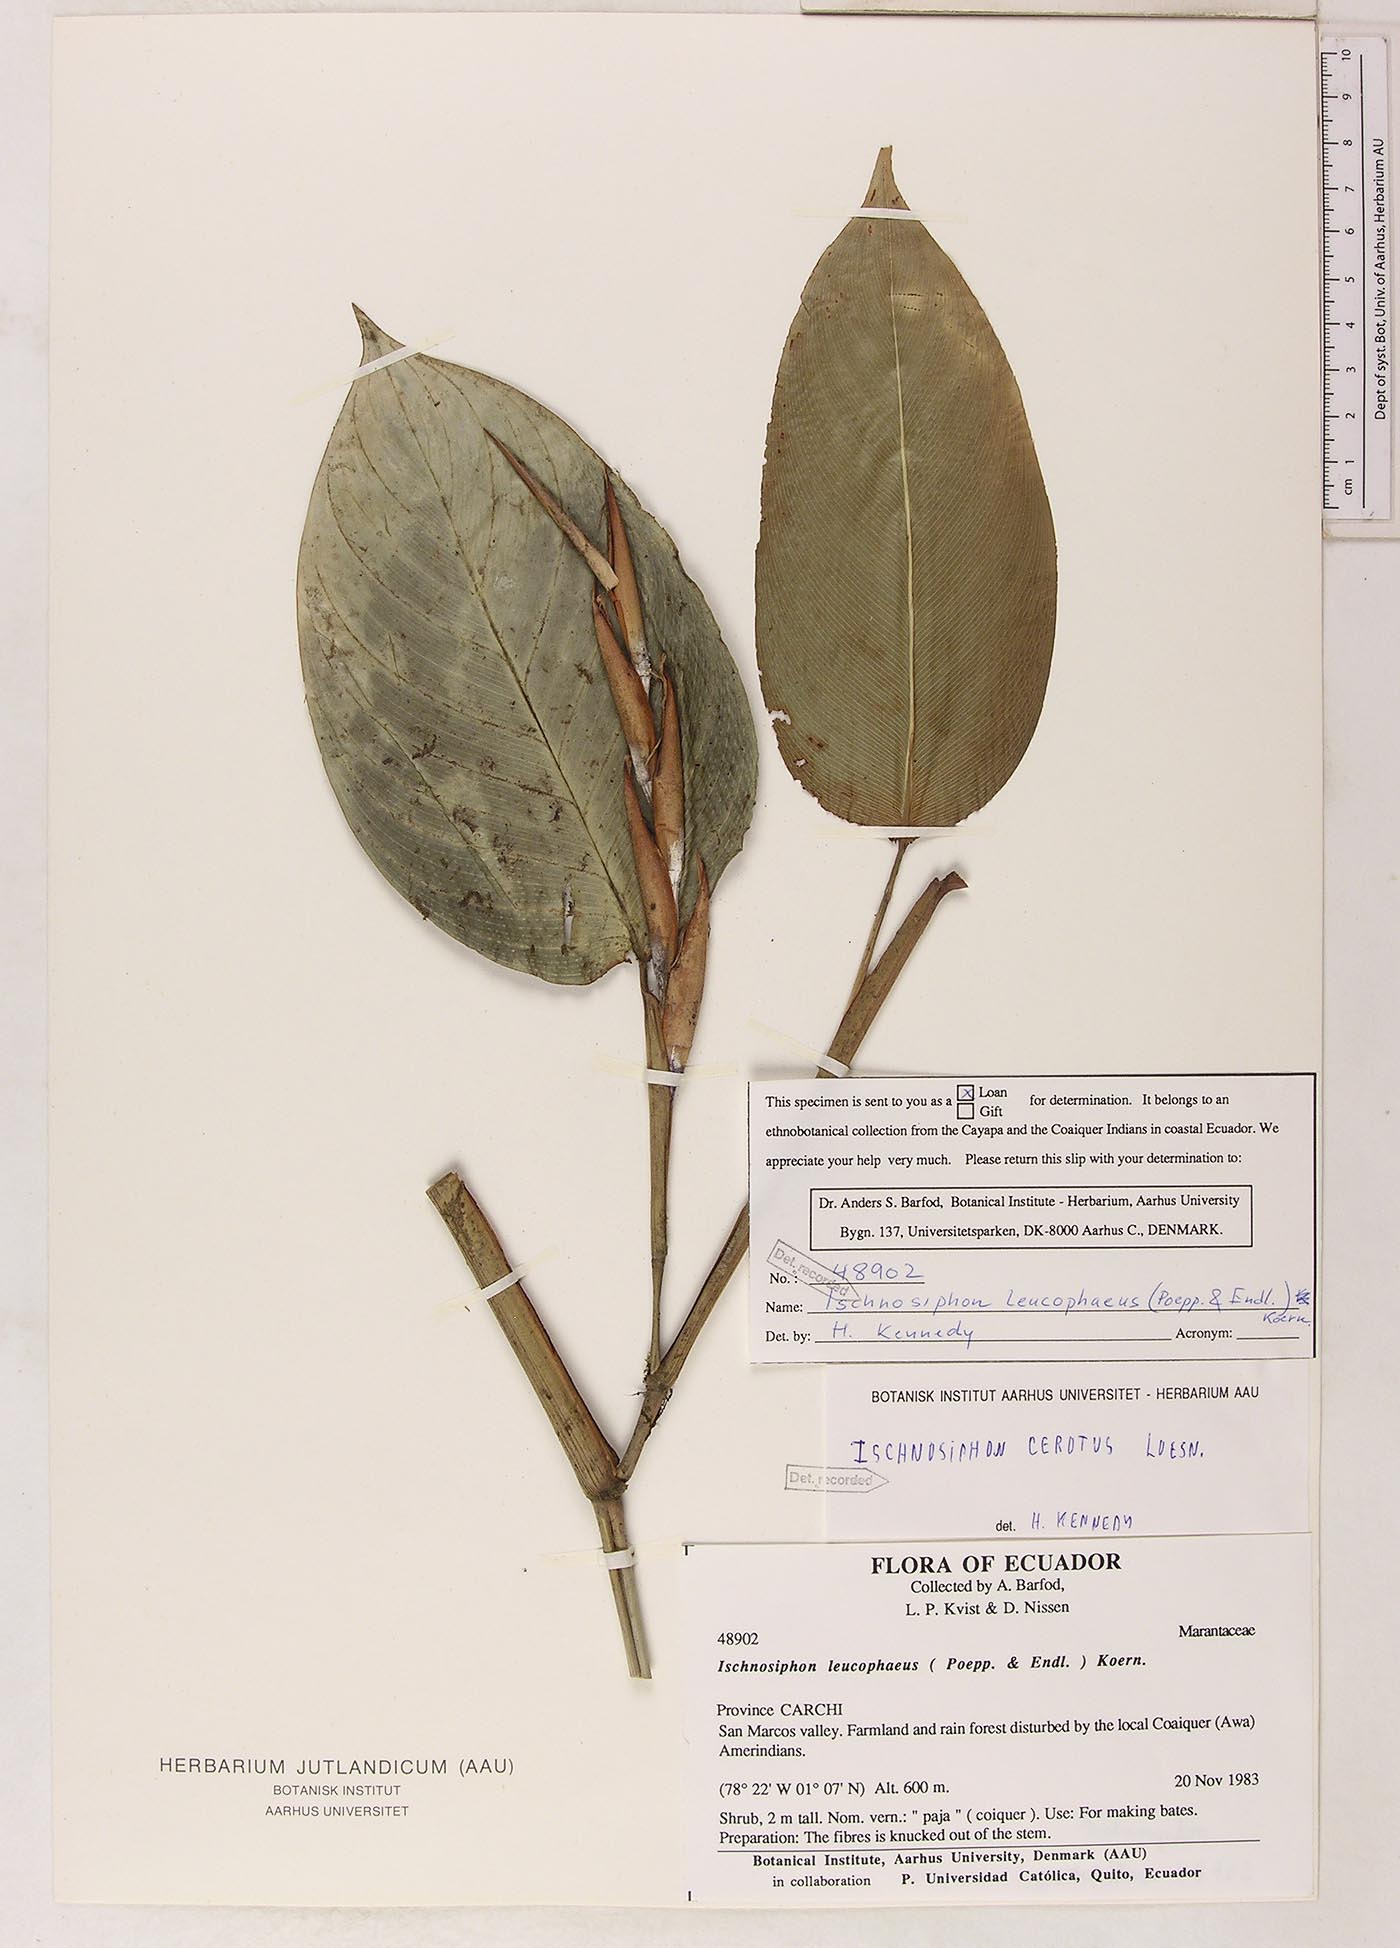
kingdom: Plantae
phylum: Tracheophyta
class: Liliopsida
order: Zingiberales
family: Marantaceae
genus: Ischnosiphon
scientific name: Ischnosiphon
